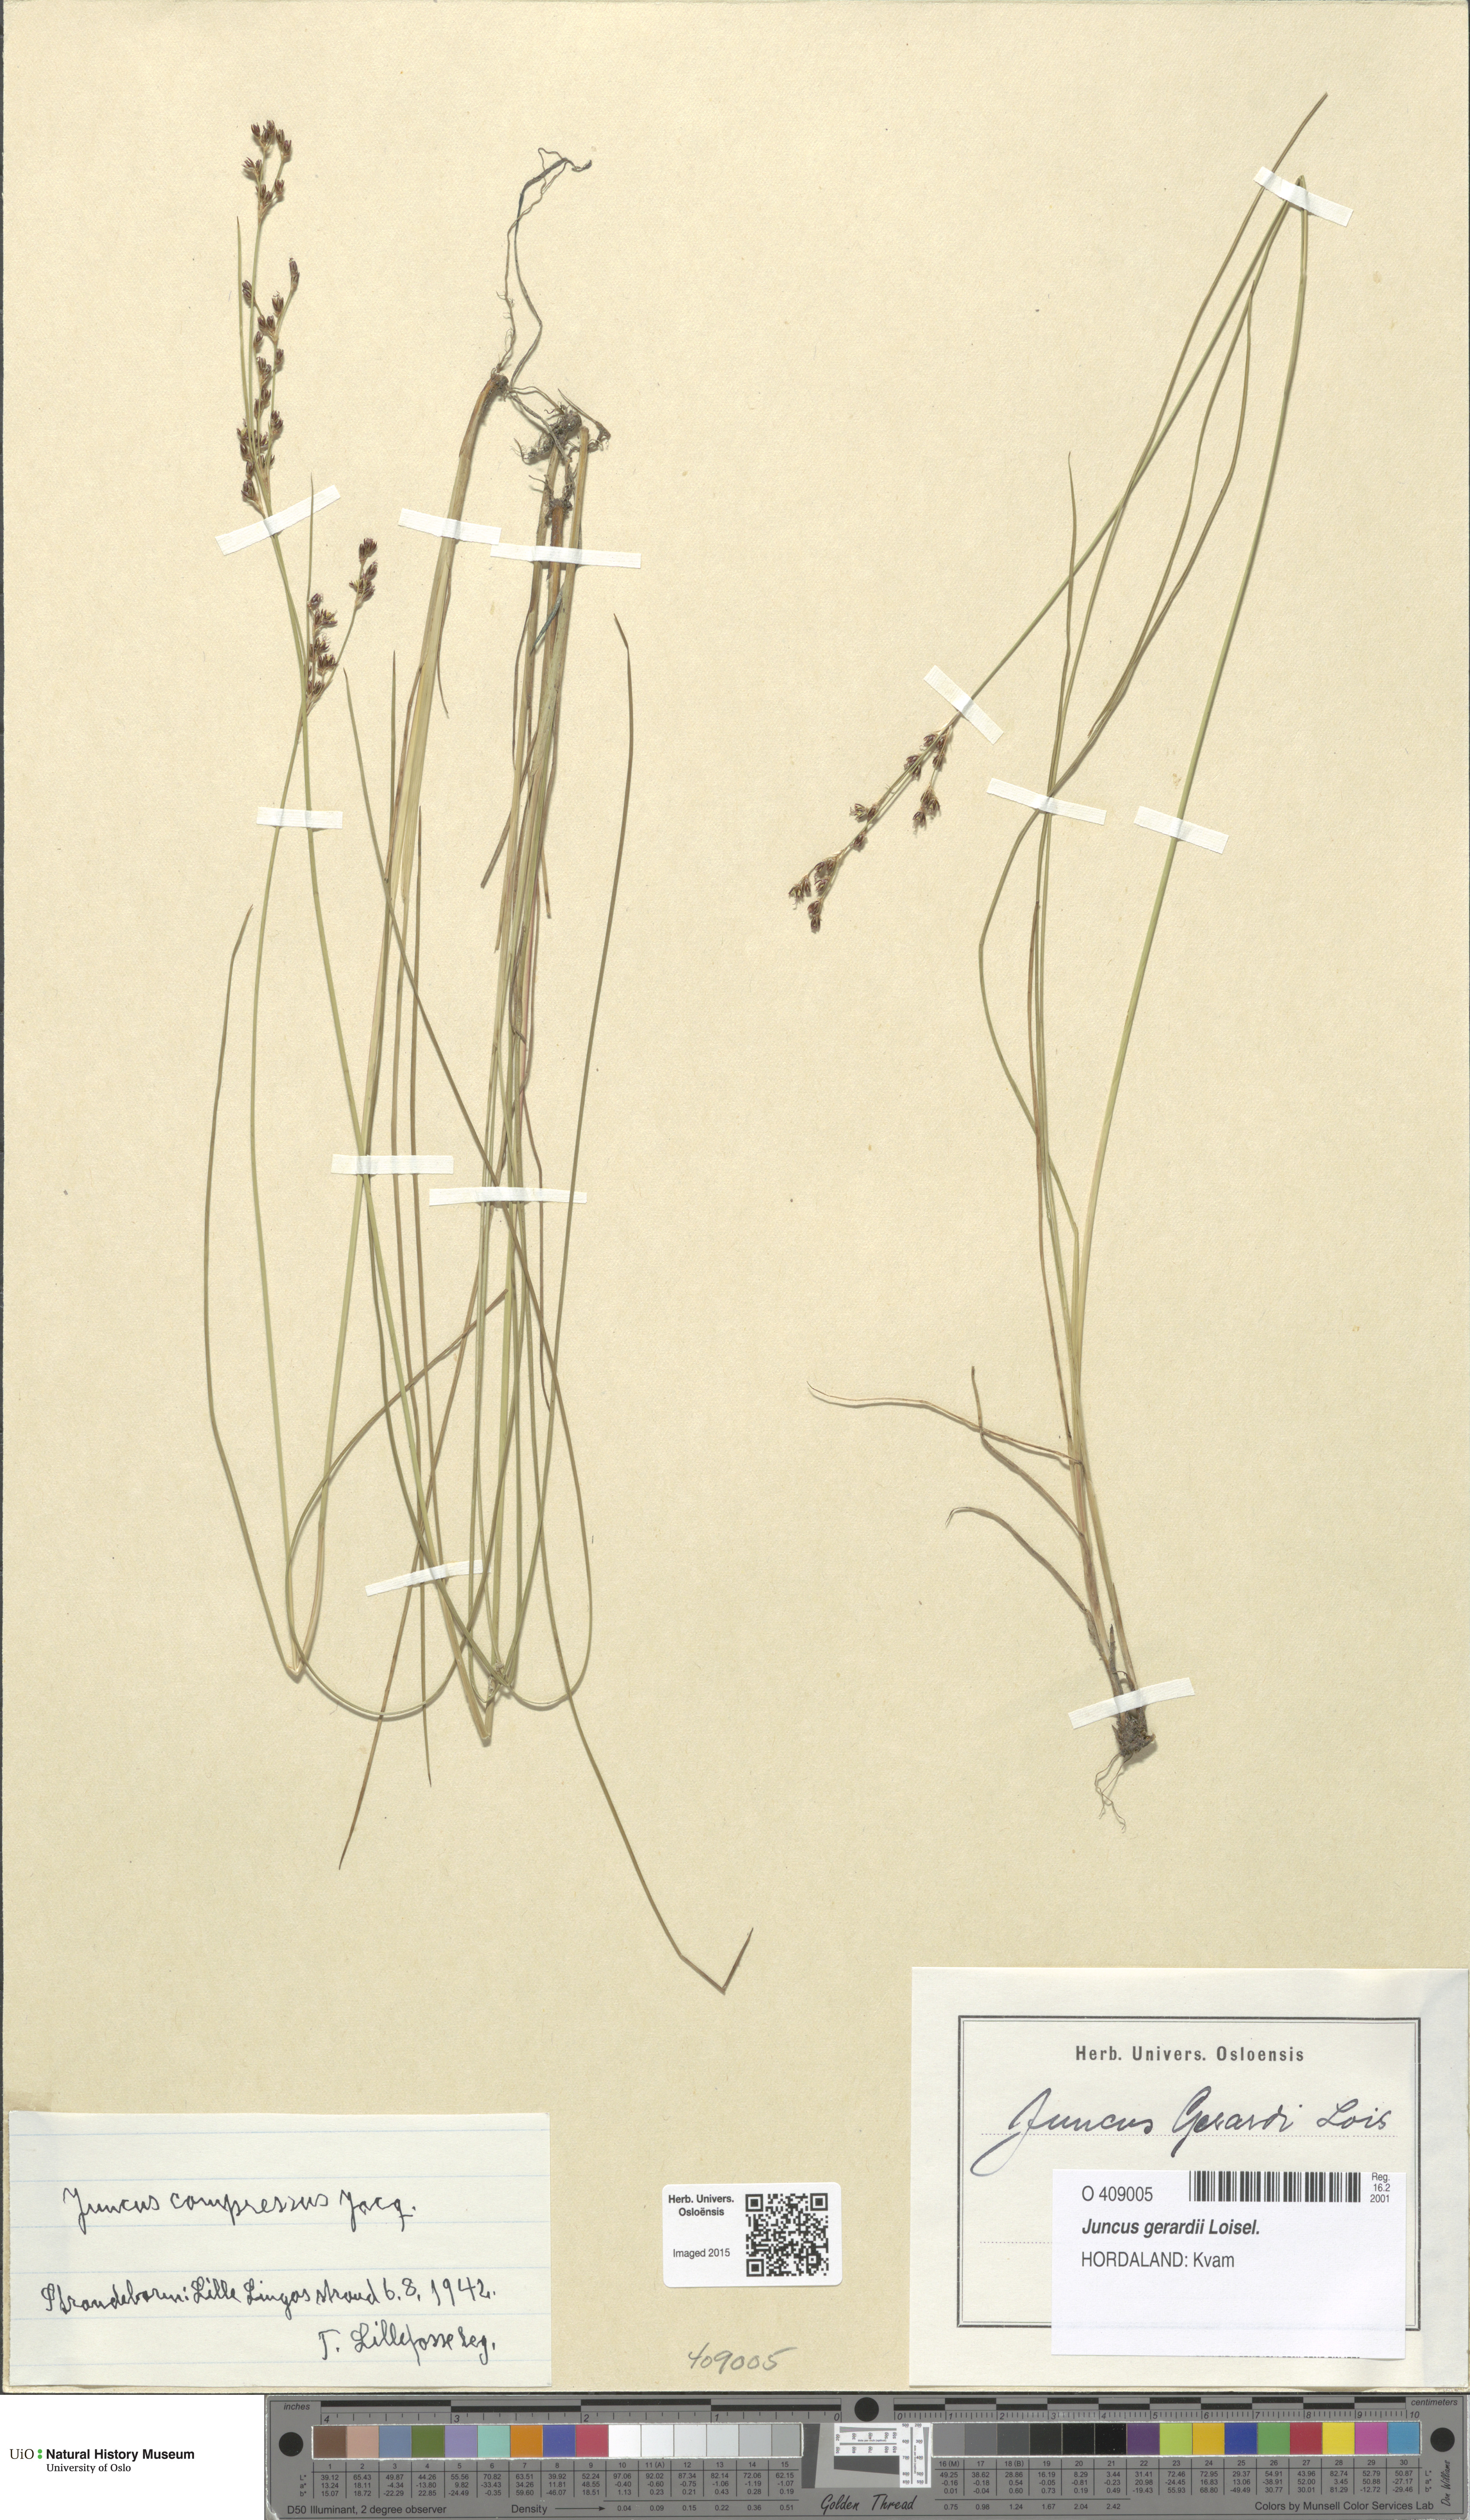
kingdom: Plantae
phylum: Tracheophyta
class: Liliopsida
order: Poales
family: Juncaceae
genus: Juncus
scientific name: Juncus gerardi
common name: Saltmarsh rush
